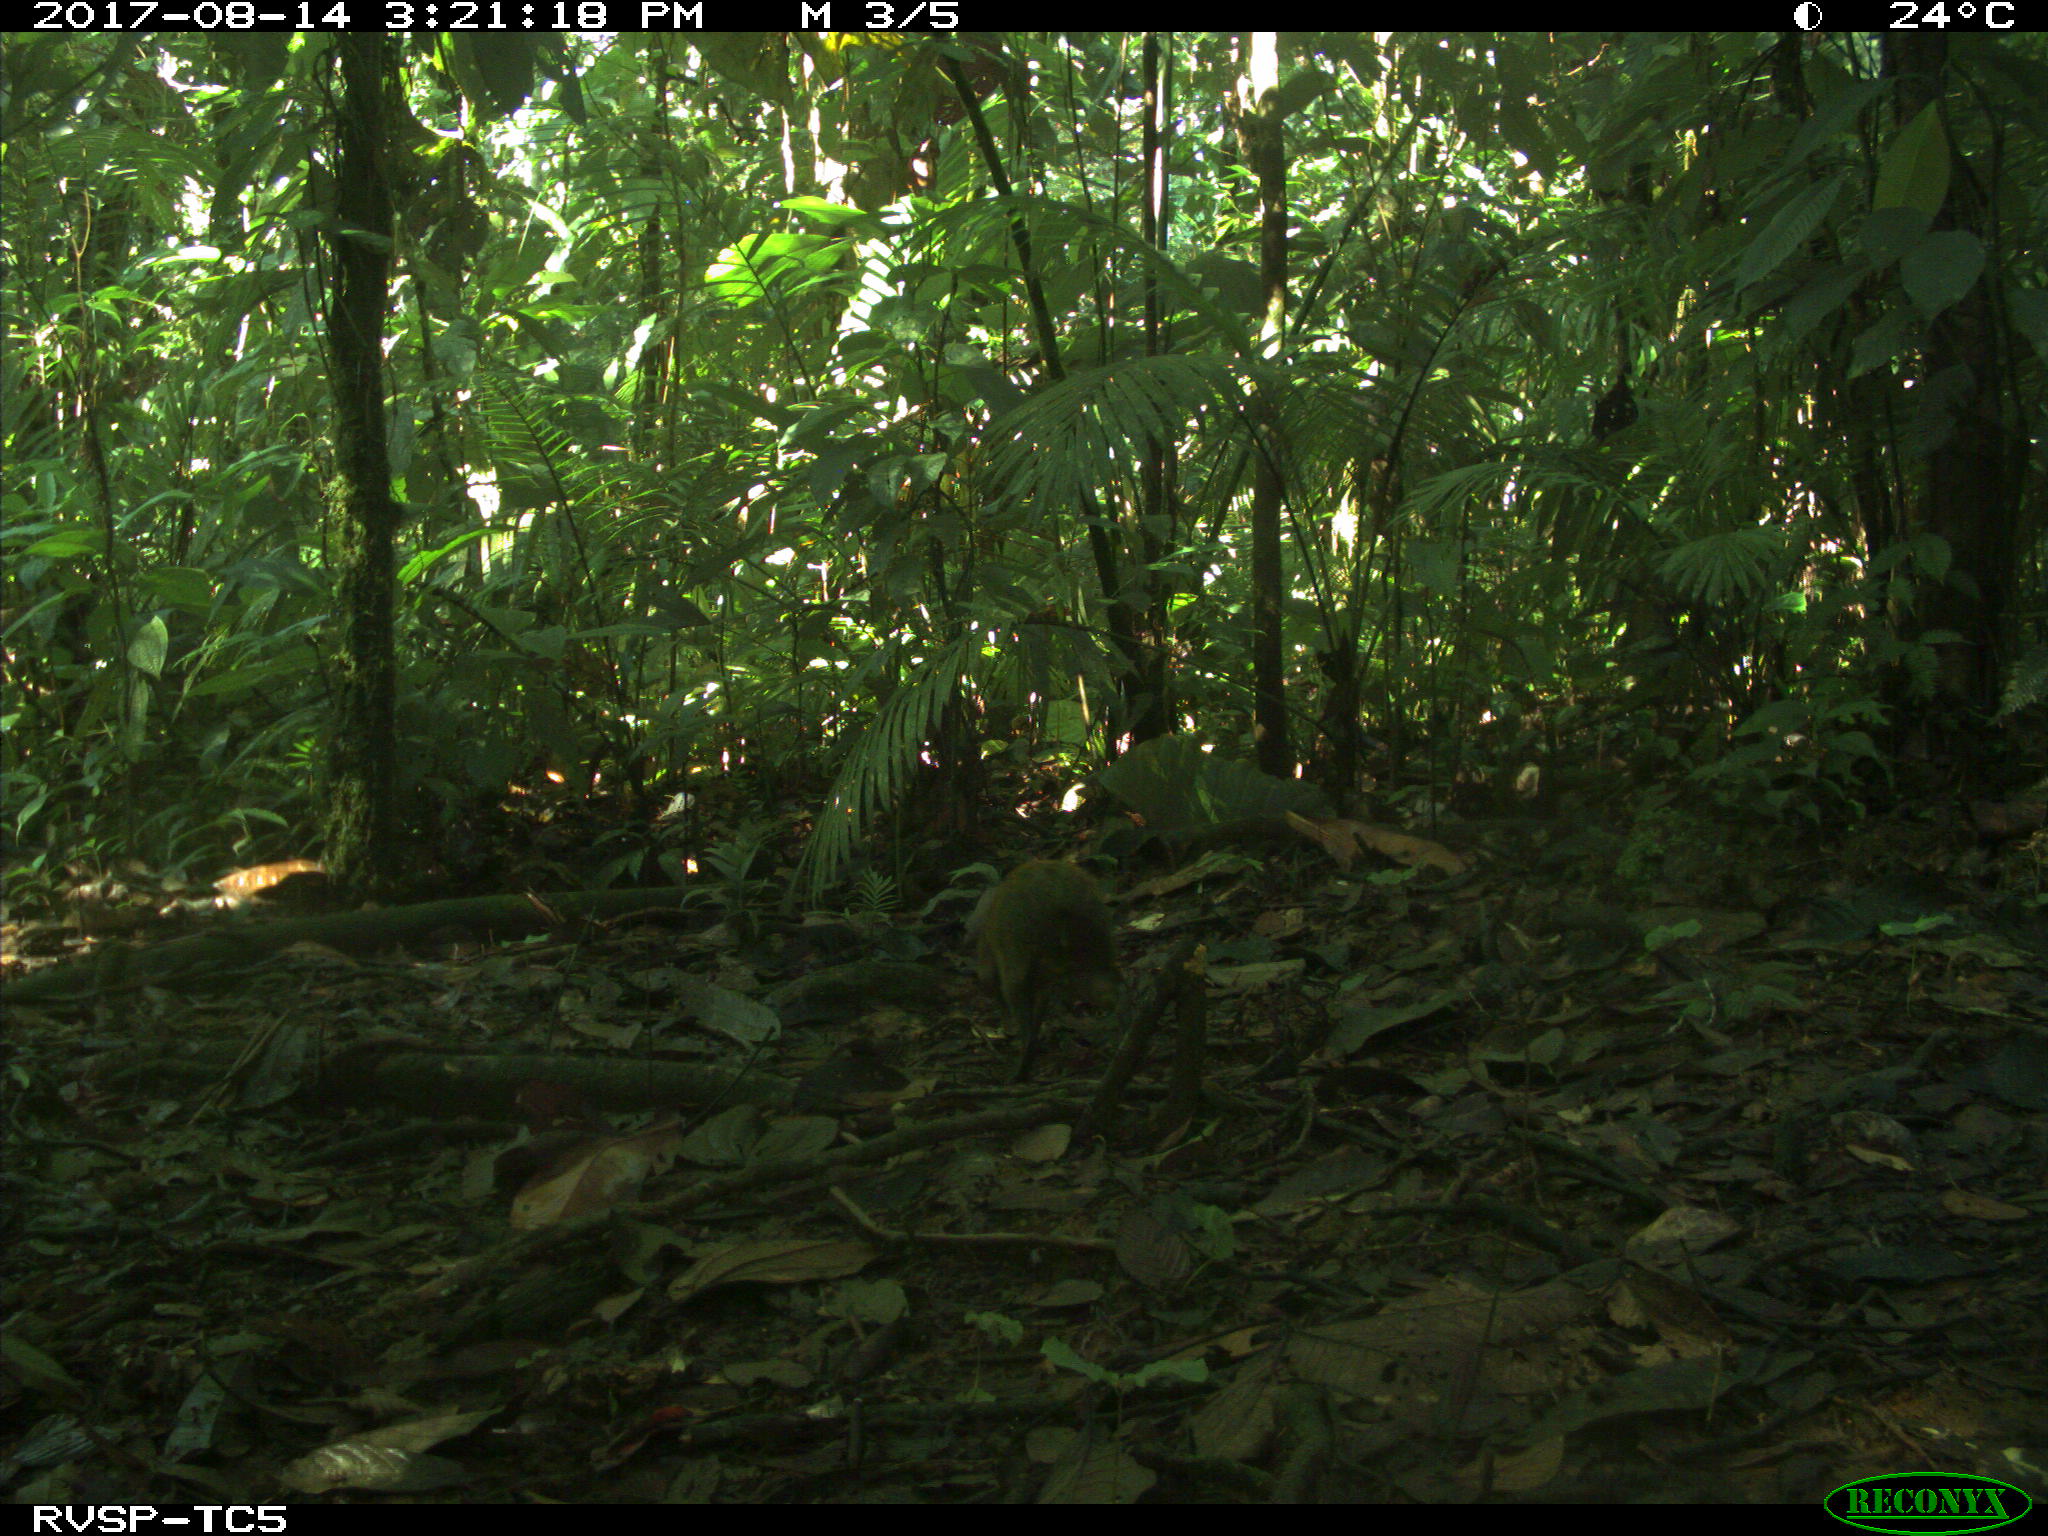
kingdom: Animalia
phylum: Chordata
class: Mammalia
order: Rodentia
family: Dasyproctidae
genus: Dasyprocta
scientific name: Dasyprocta punctata
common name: Central american agouti
